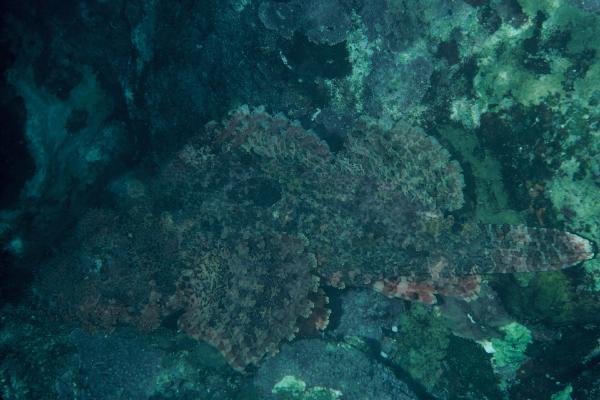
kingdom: Animalia
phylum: Chordata
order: Scorpaeniformes
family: Scorpaenidae
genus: Scorpaenopsis
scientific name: Scorpaenopsis
